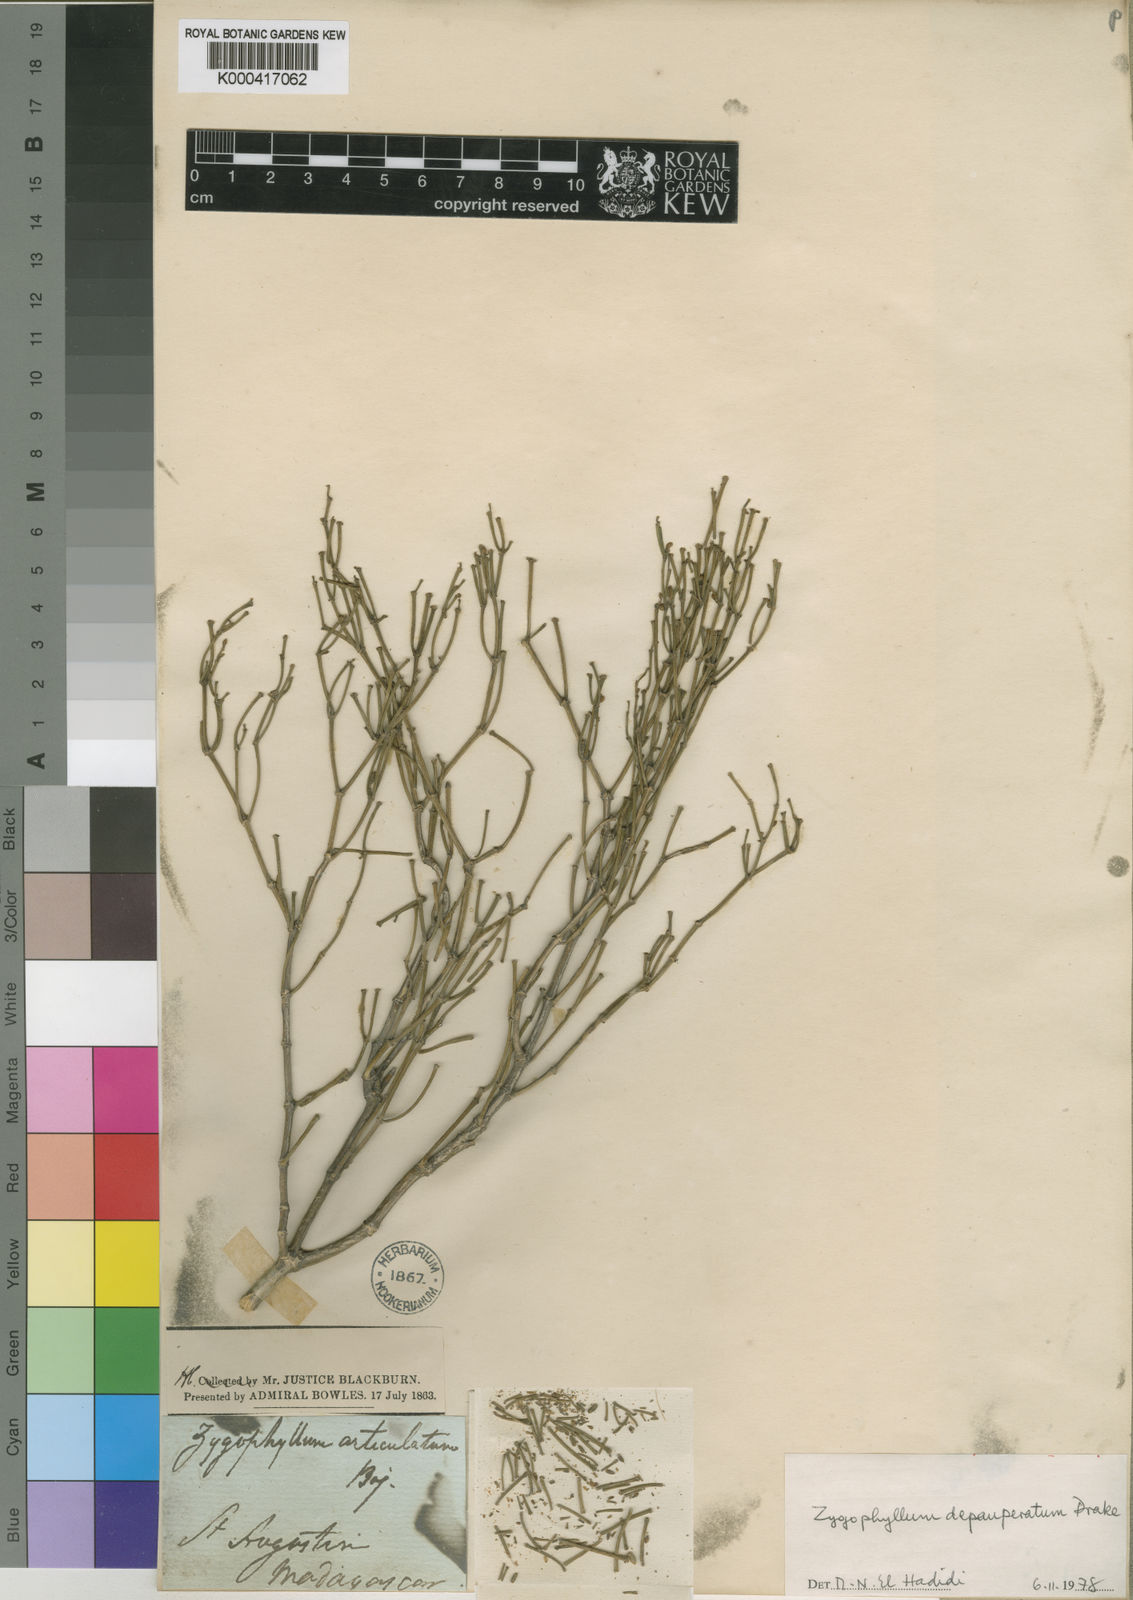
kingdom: Plantae
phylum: Tracheophyta
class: Magnoliopsida
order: Zygophyllales
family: Zygophyllaceae
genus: Tetraena
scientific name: Tetraena madagascariensis
